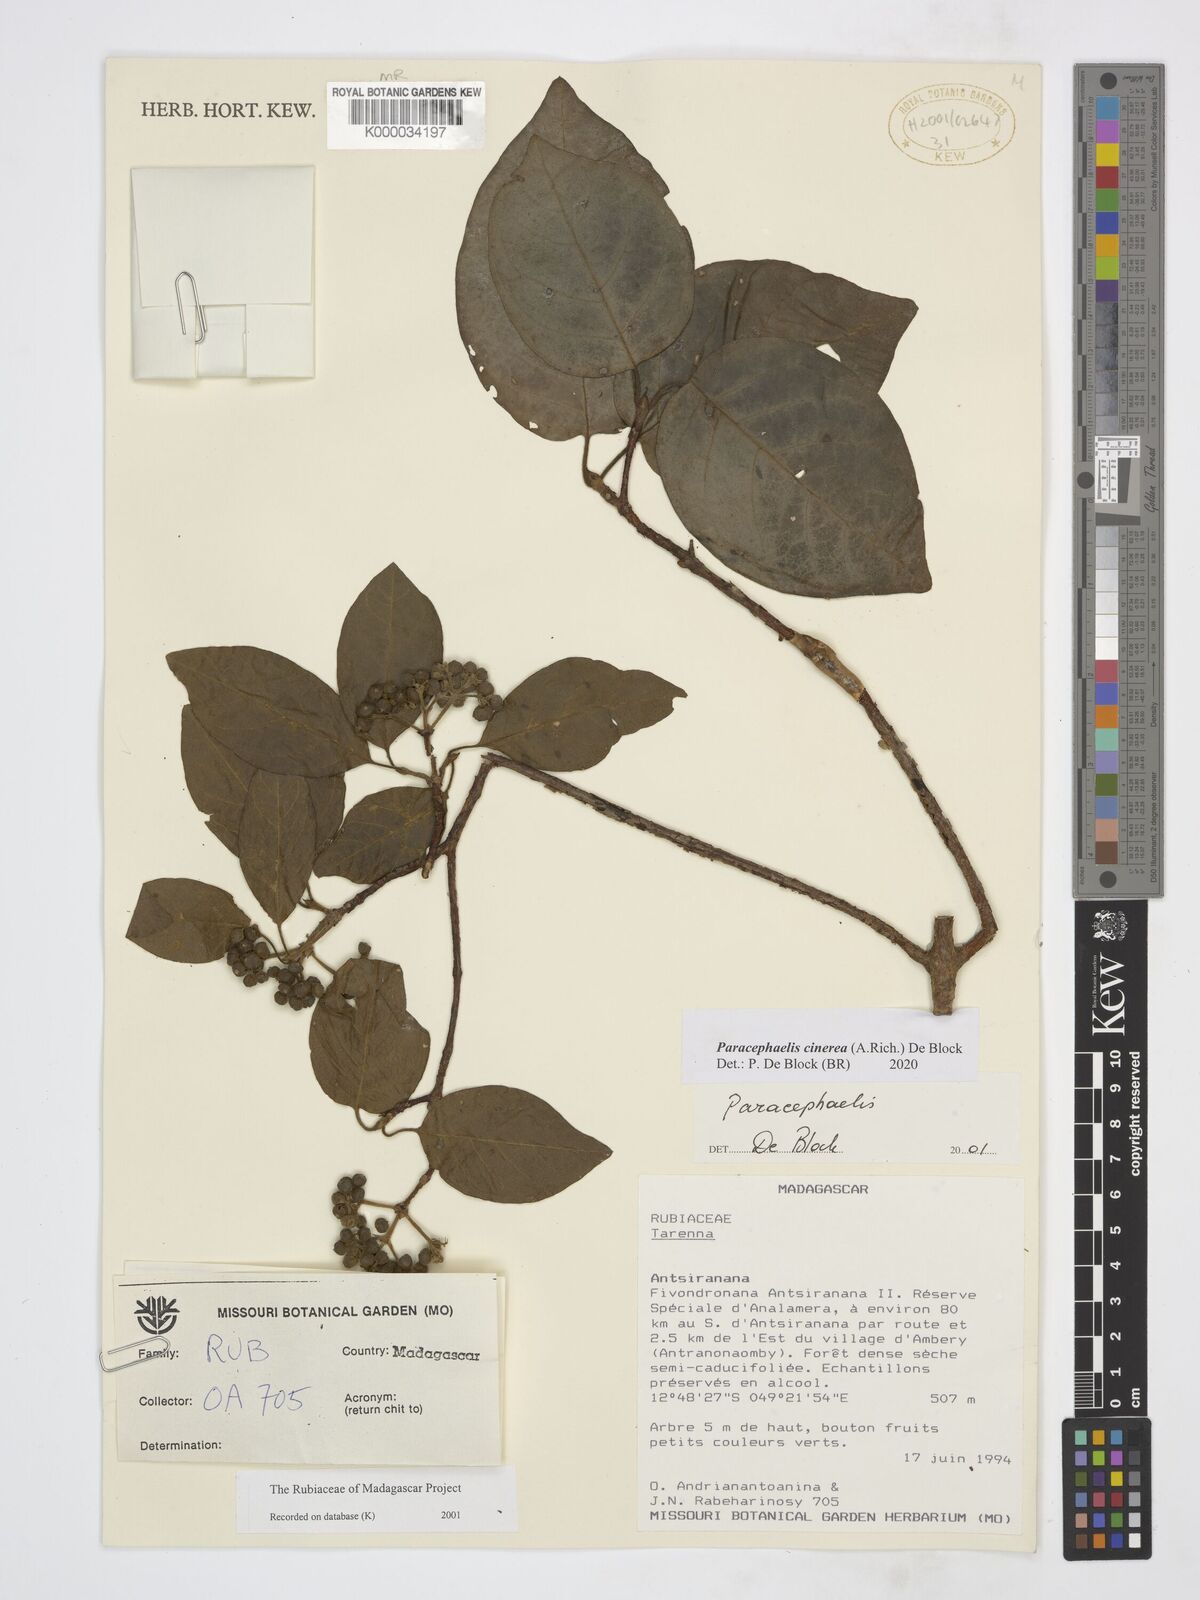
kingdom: Plantae
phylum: Tracheophyta
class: Magnoliopsida
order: Gentianales
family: Rubiaceae
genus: Paracephaelis
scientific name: Paracephaelis
